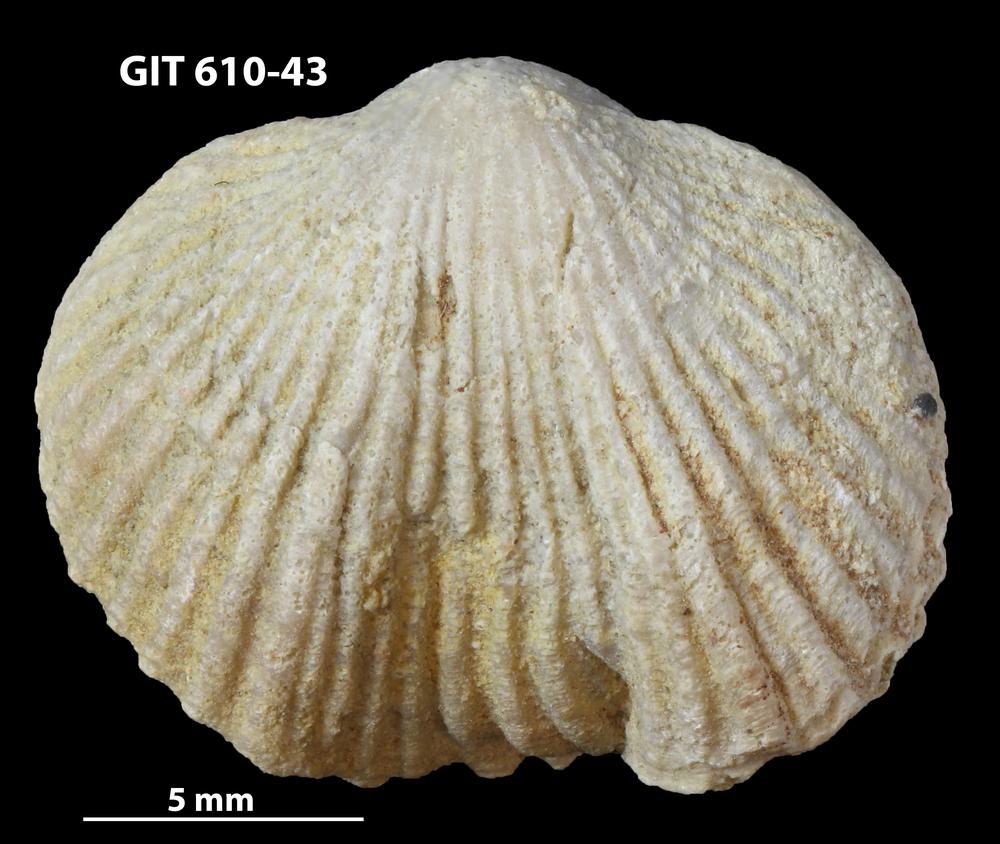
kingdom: Animalia
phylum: Brachiopoda
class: Rhynchonellata
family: Triplesiidae
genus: Cliftonia
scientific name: Cliftonia
